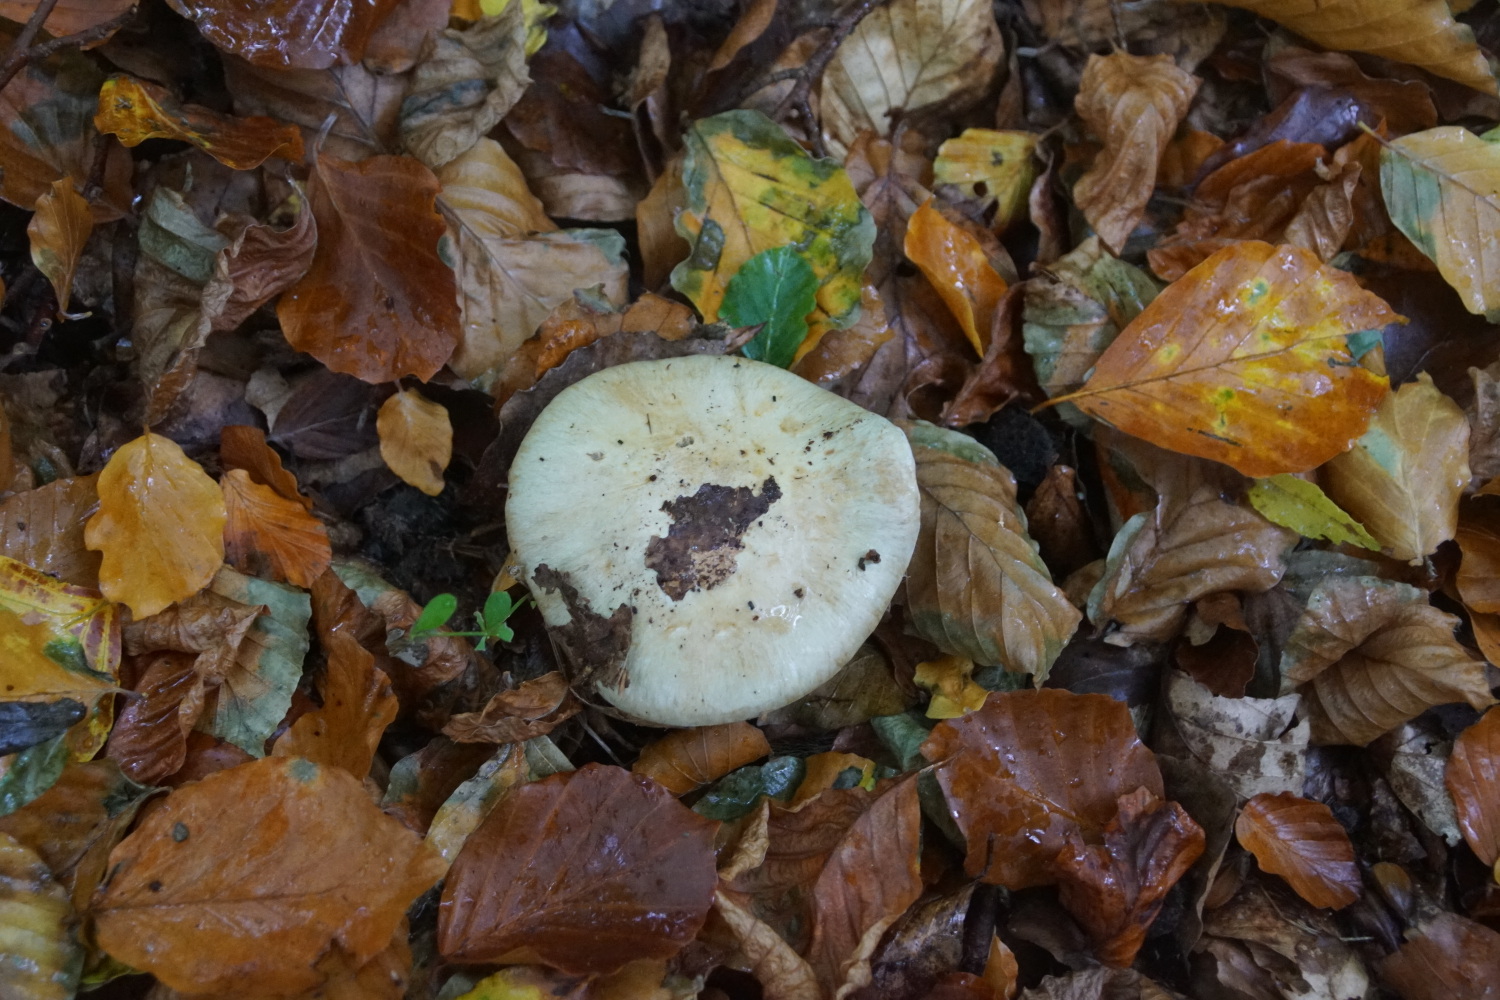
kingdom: Fungi
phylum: Basidiomycota
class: Agaricomycetes
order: Agaricales
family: Tricholomataceae
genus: Lepista
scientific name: Lepista nuda
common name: violet hekseringshat
